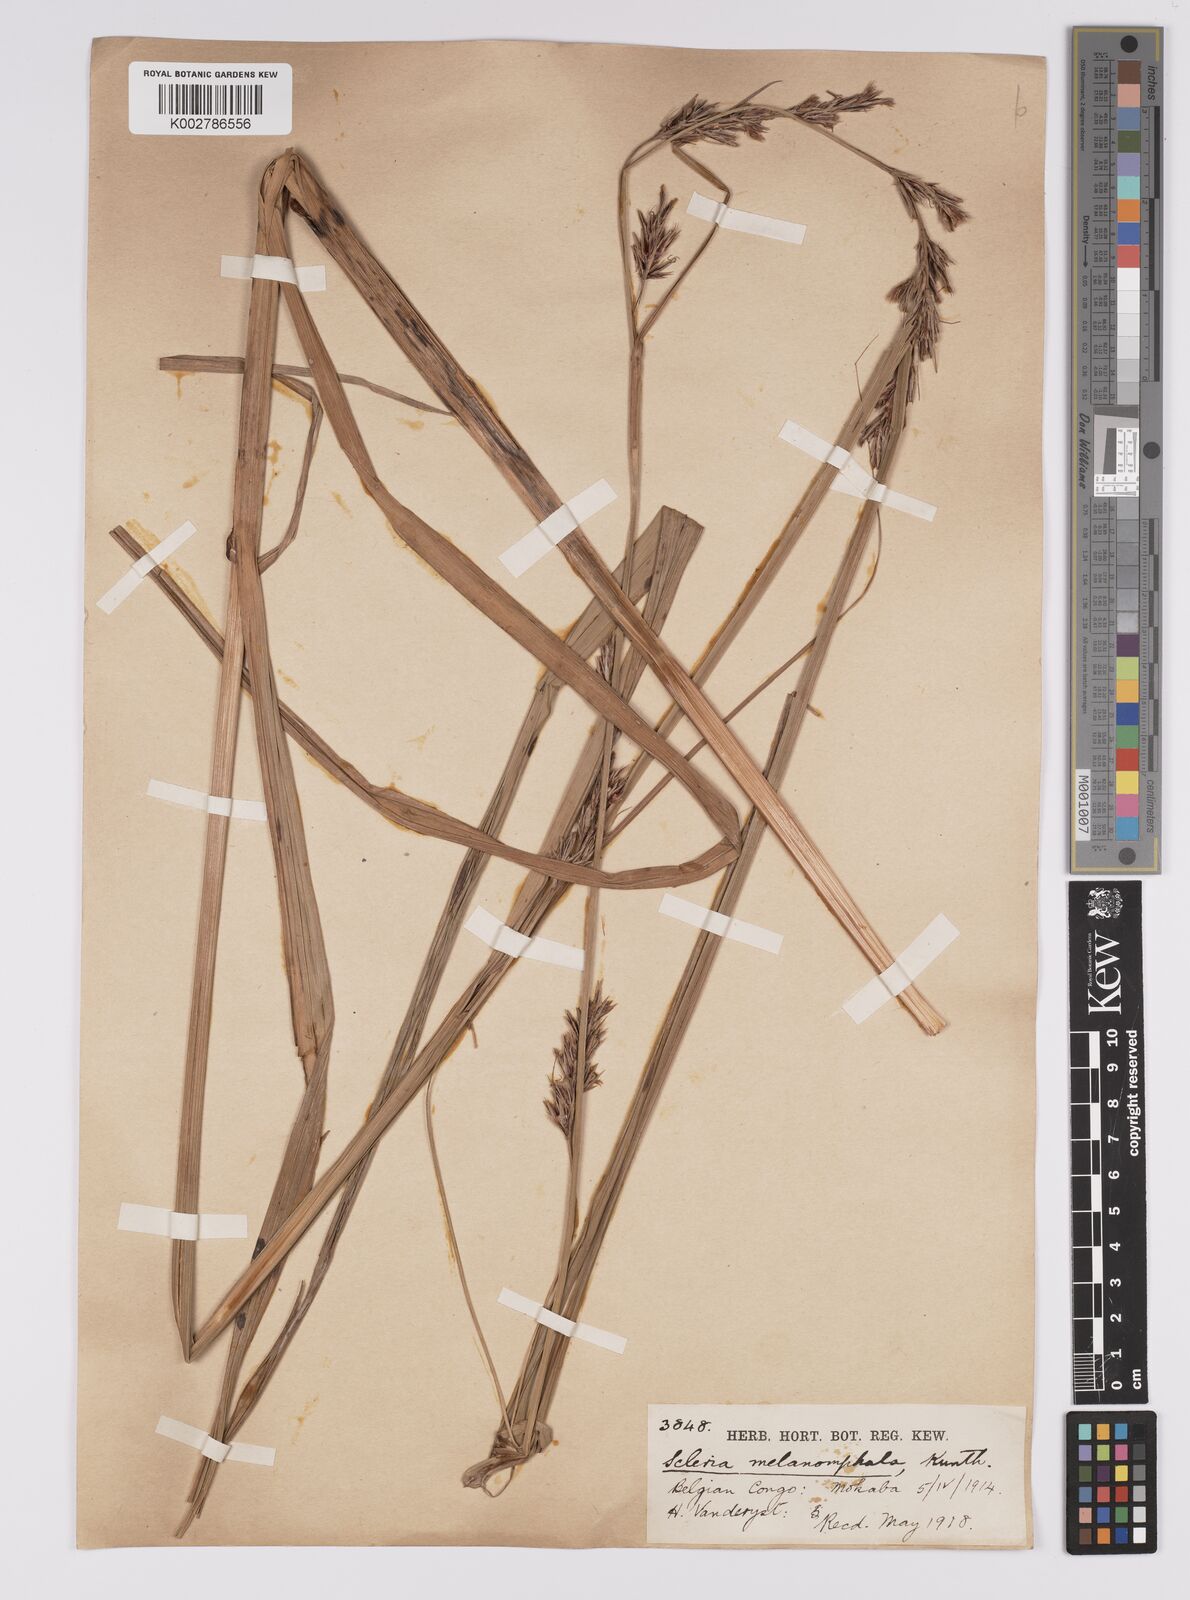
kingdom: Plantae
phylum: Tracheophyta
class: Liliopsida
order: Poales
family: Cyperaceae
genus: Scleria
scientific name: Scleria melanomphala
